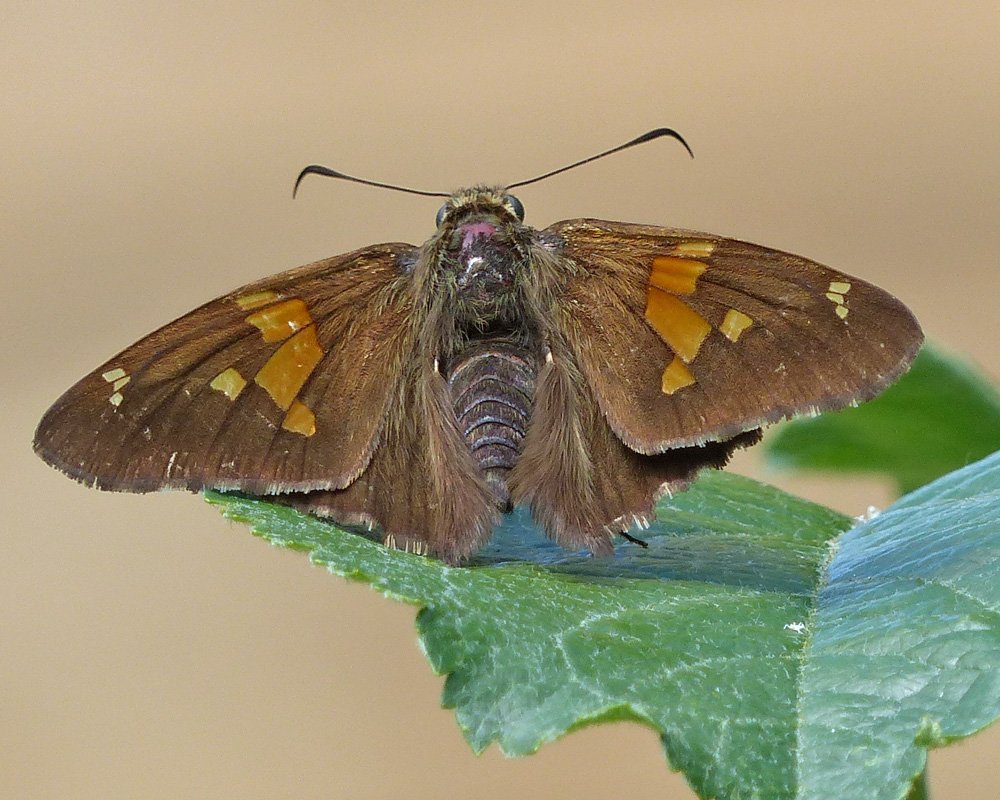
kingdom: Animalia
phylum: Arthropoda
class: Insecta
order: Lepidoptera
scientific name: Lepidoptera
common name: Butterflies
